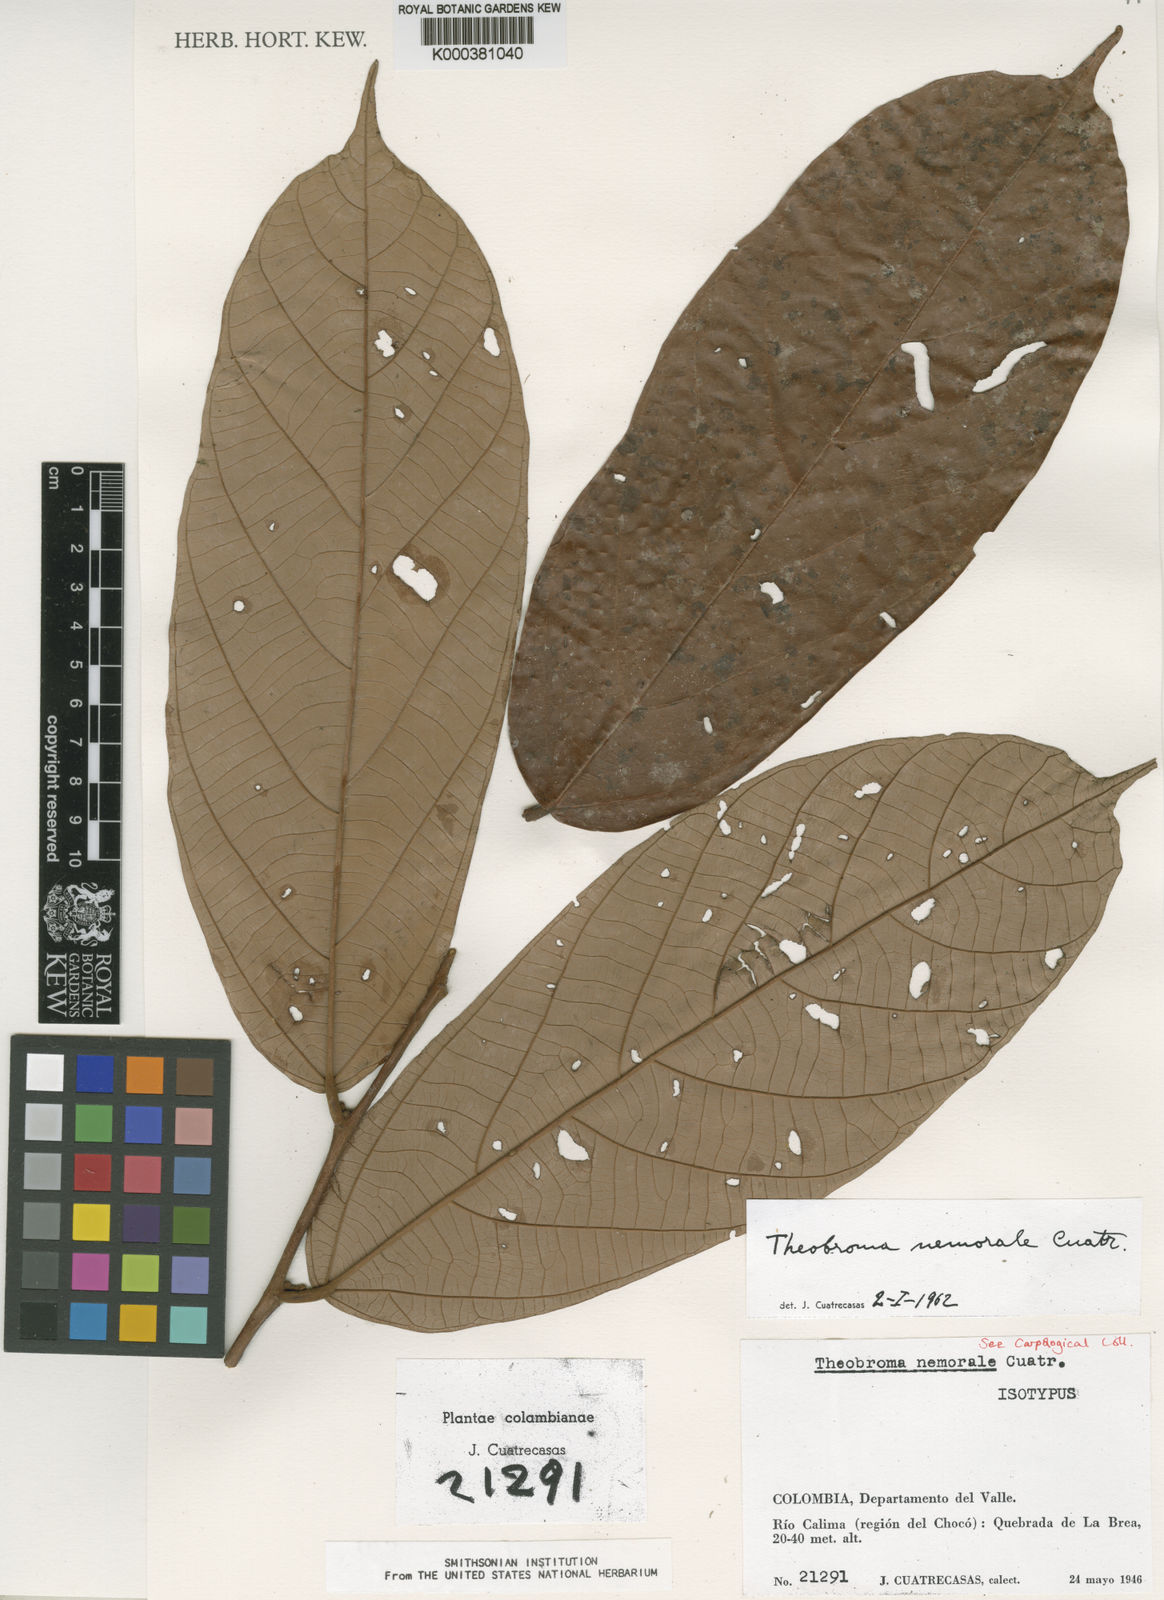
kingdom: Plantae
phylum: Tracheophyta
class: Magnoliopsida
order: Malvales
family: Malvaceae
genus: Theobroma
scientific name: Theobroma nemorale
